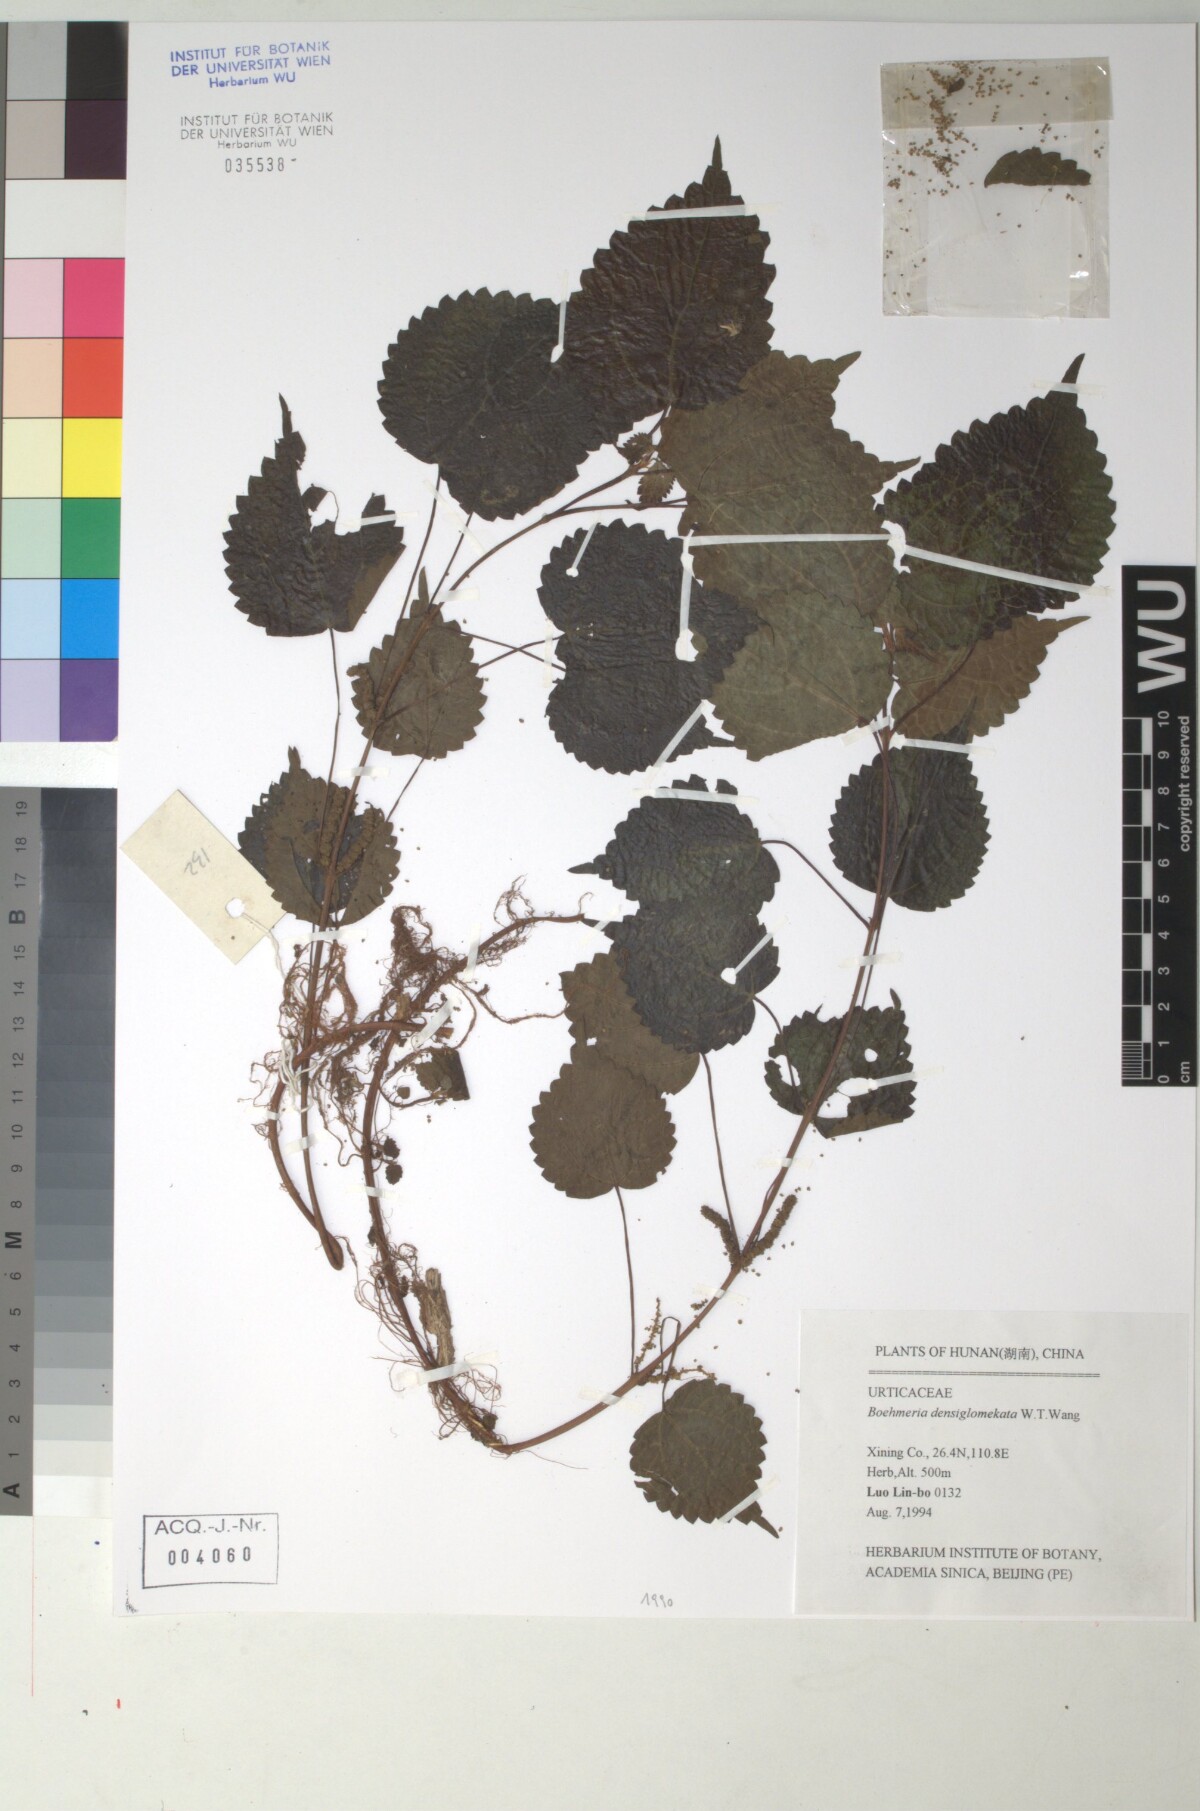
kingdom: Plantae
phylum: Tracheophyta
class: Magnoliopsida
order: Rosales
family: Urticaceae
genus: Boehmeria
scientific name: Boehmeria virgata
